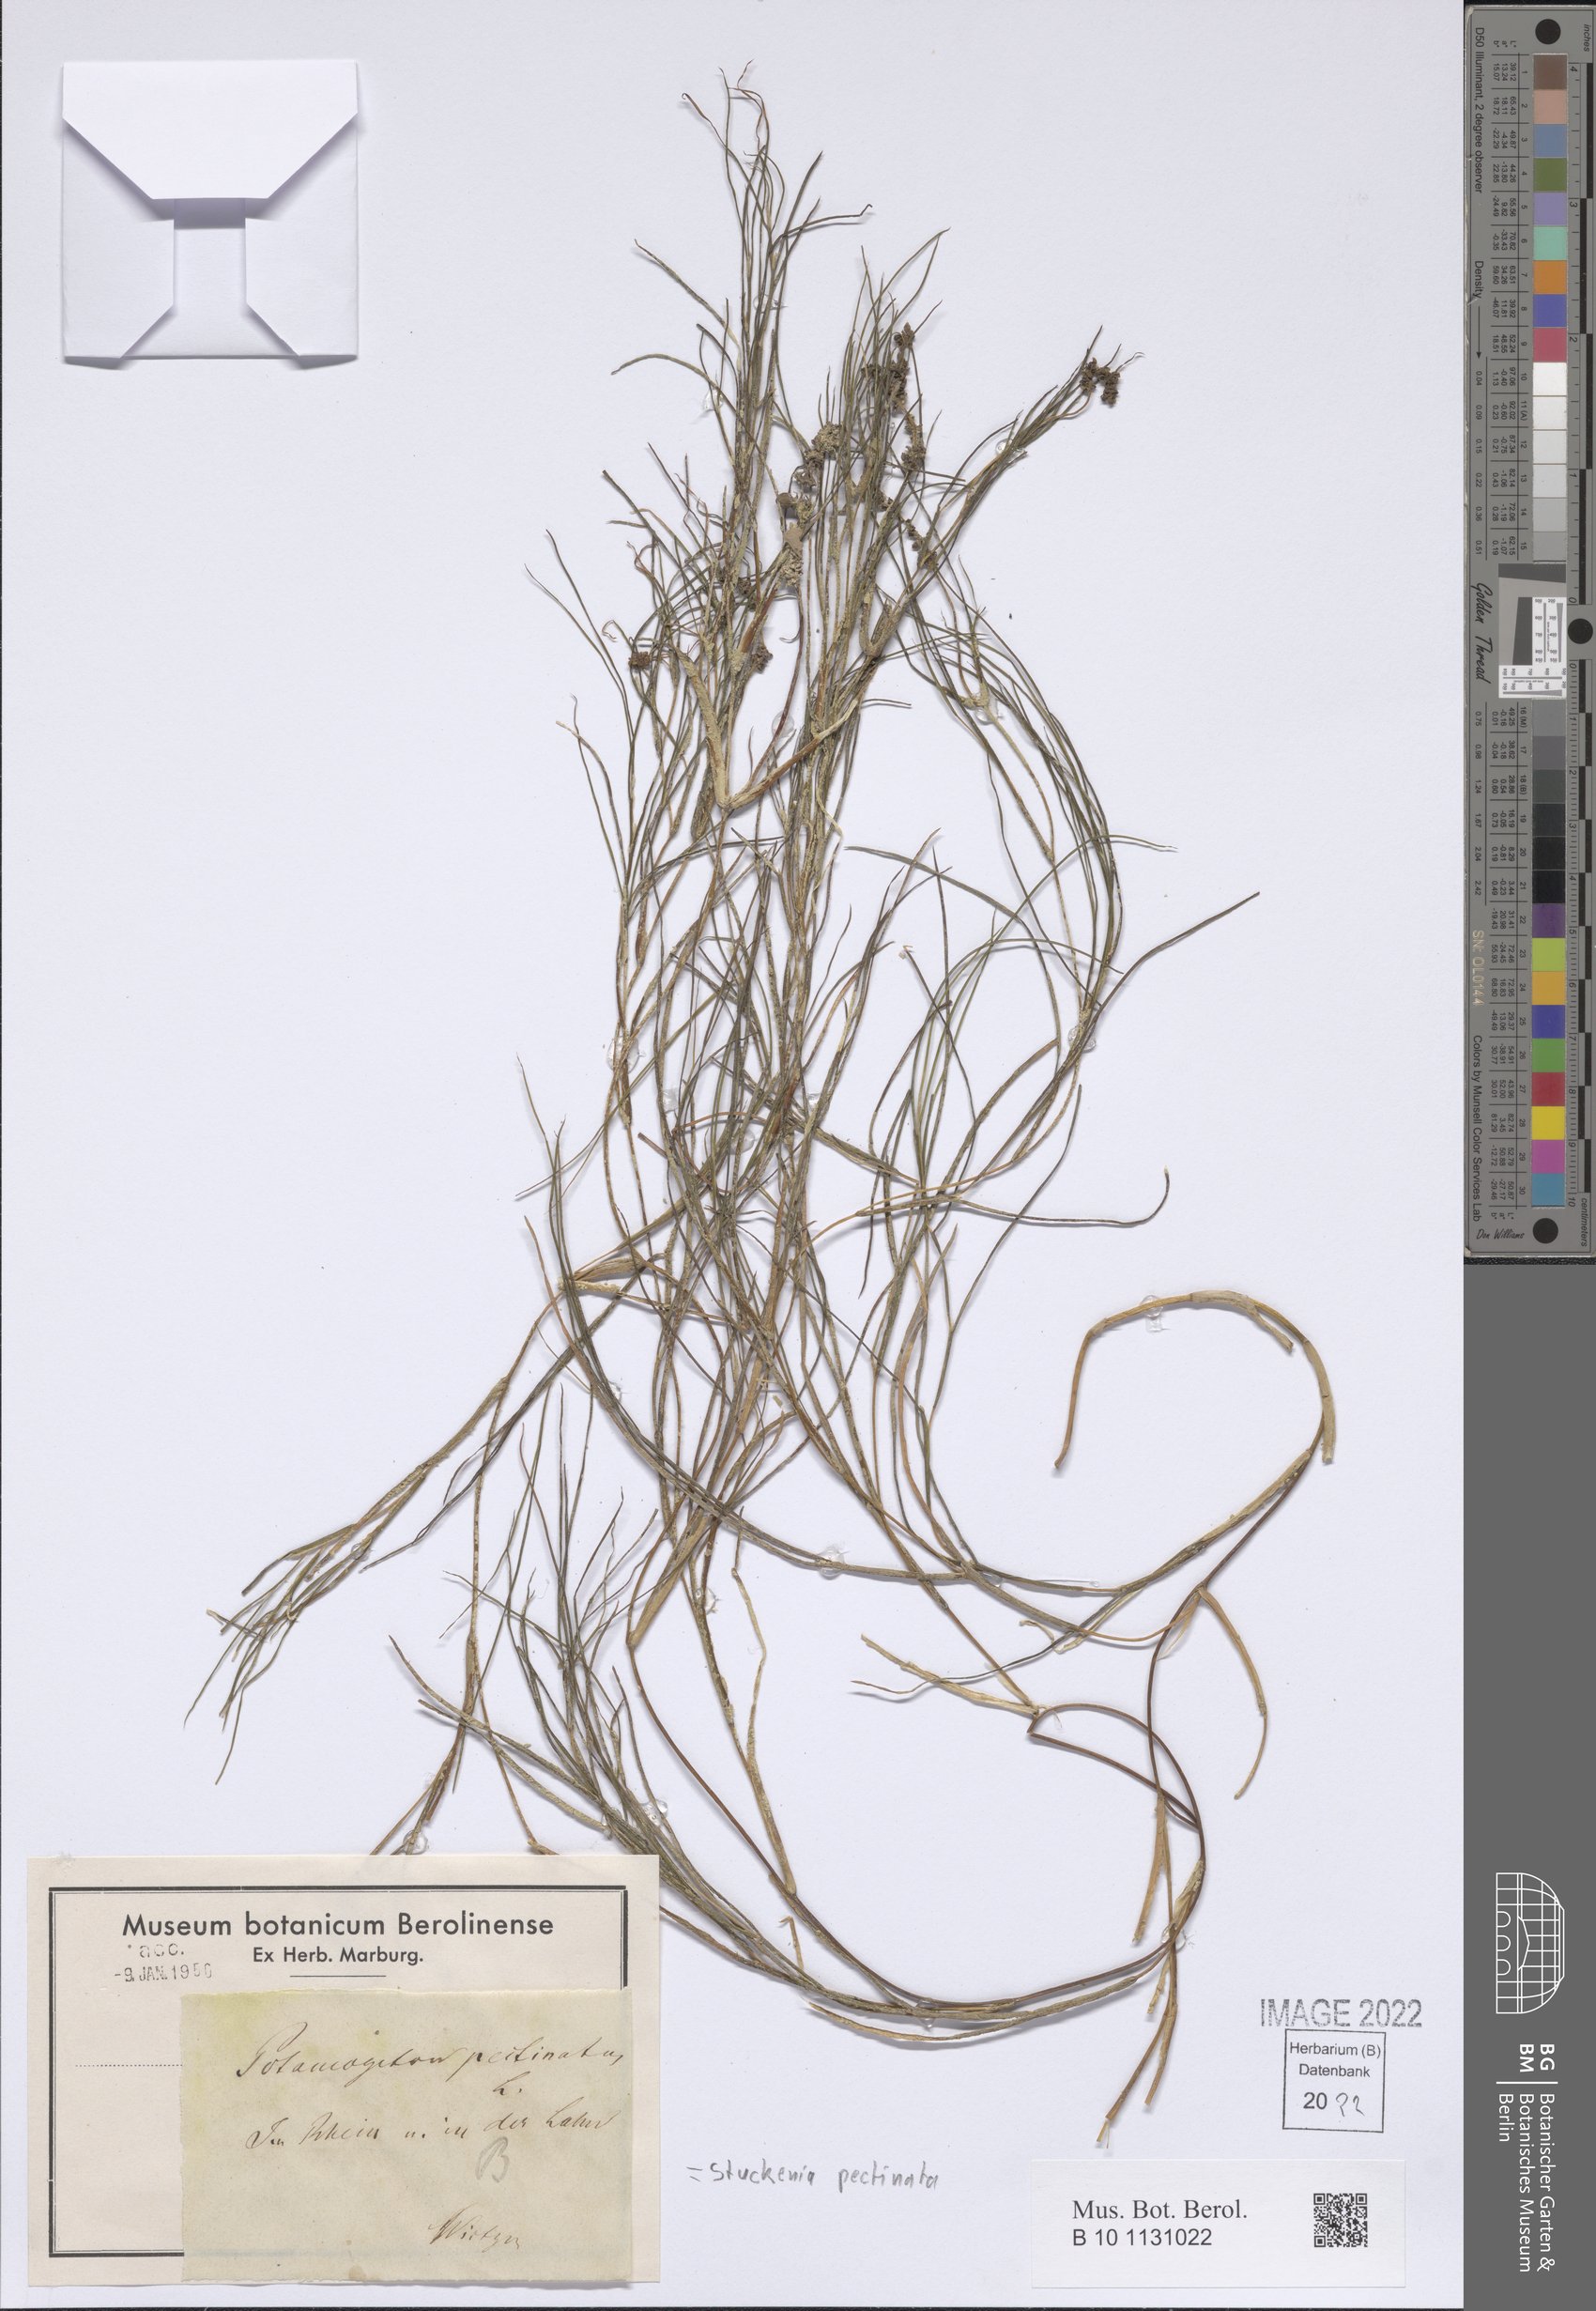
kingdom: Plantae
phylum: Tracheophyta
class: Liliopsida
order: Alismatales
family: Potamogetonaceae
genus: Stuckenia
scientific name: Stuckenia pectinata
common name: Sago pondweed
